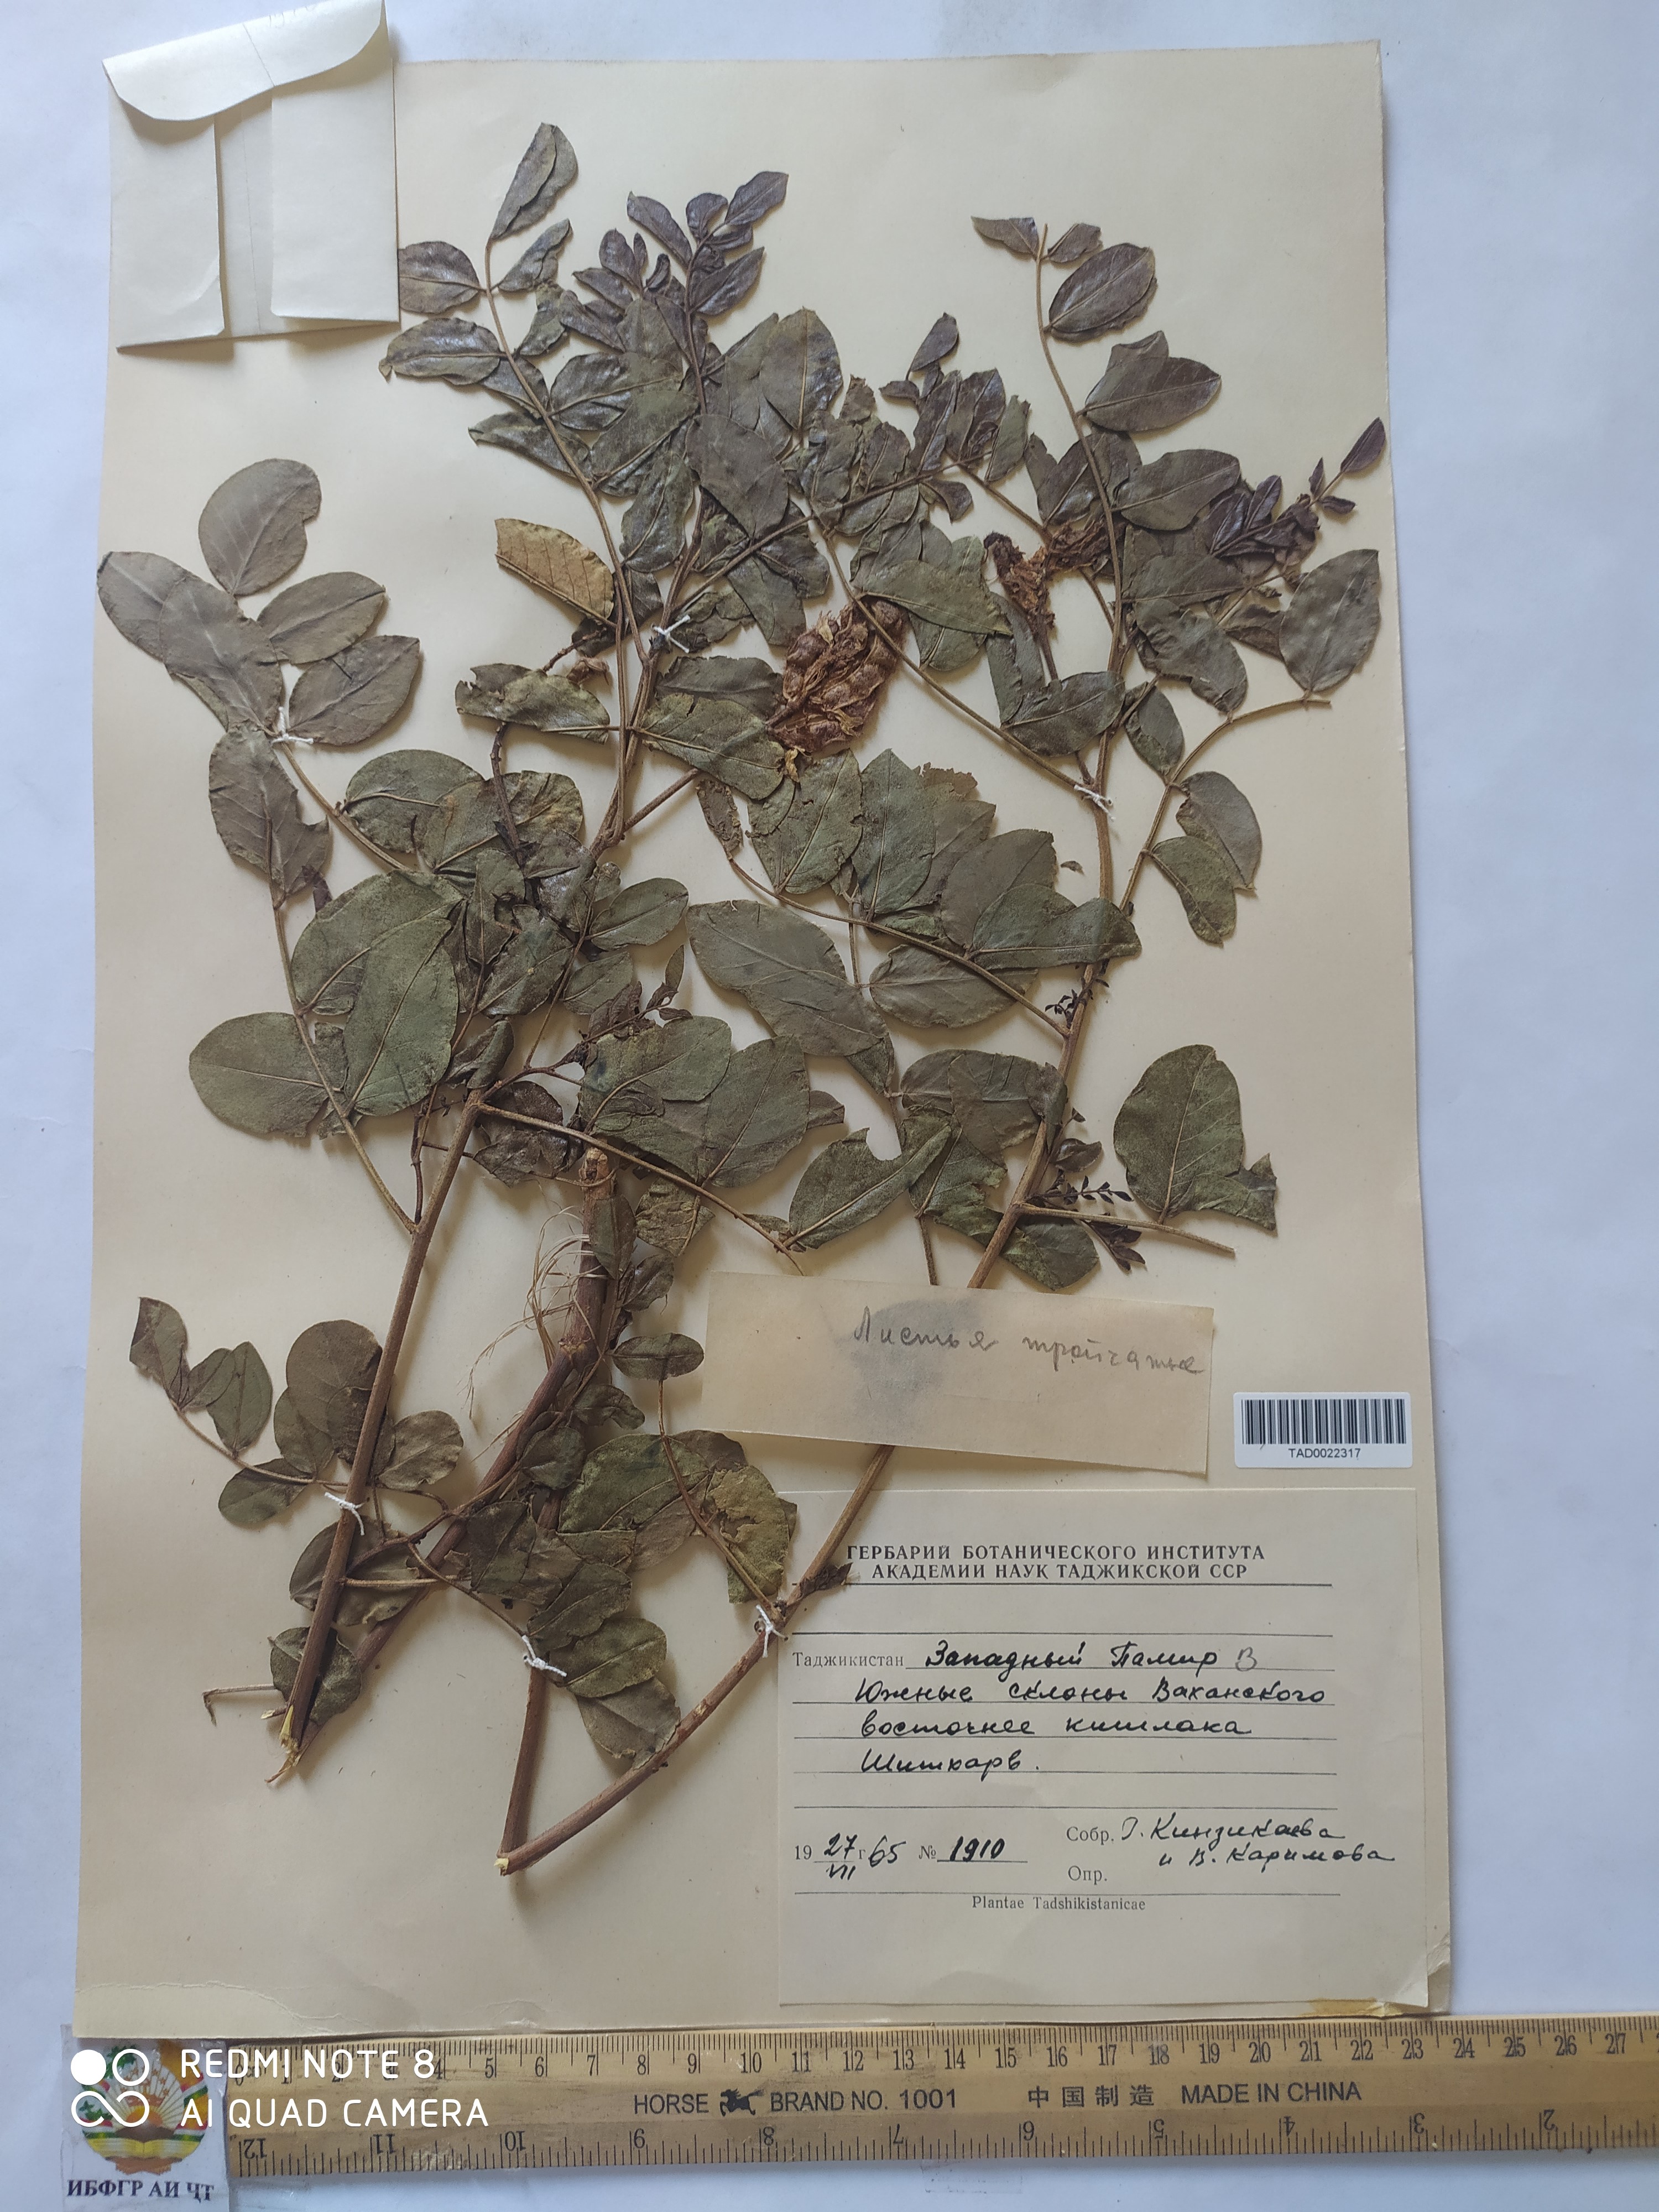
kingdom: Plantae
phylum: Tracheophyta
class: Magnoliopsida
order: Fabales
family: Fabaceae
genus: Glycyrrhiza
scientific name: Glycyrrhiza uralensis
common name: Chinese licorice
